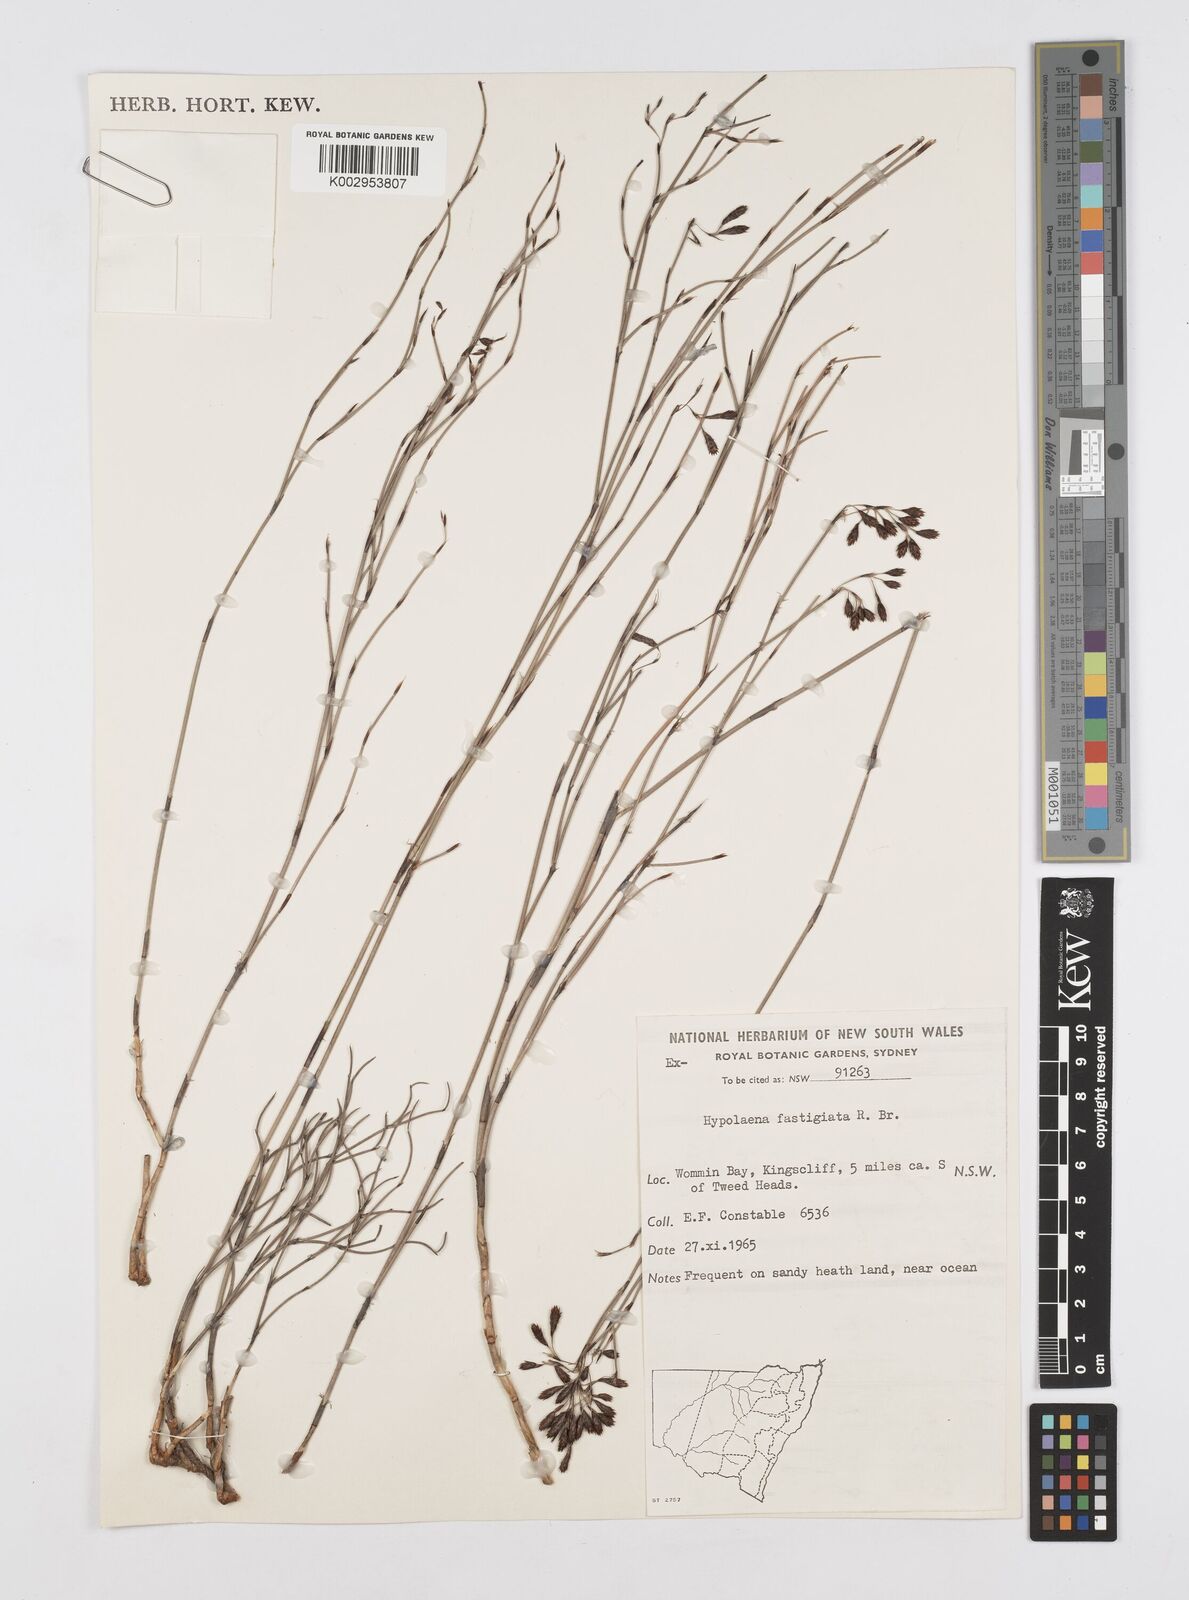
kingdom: Plantae
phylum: Tracheophyta
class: Liliopsida
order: Poales
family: Restionaceae
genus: Hypolaena
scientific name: Hypolaena fastigiata
